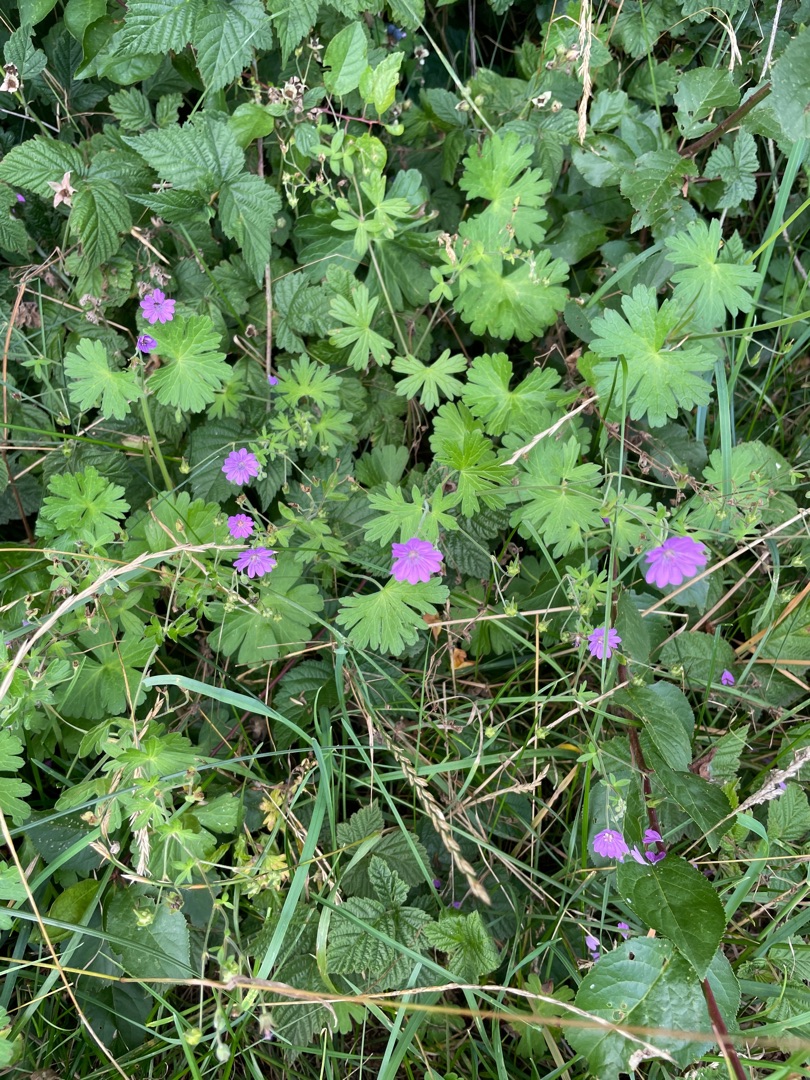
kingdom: Plantae
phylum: Tracheophyta
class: Magnoliopsida
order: Geraniales
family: Geraniaceae
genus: Geranium
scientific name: Geranium pyrenaicum
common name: Pyrenæisk storkenæb
